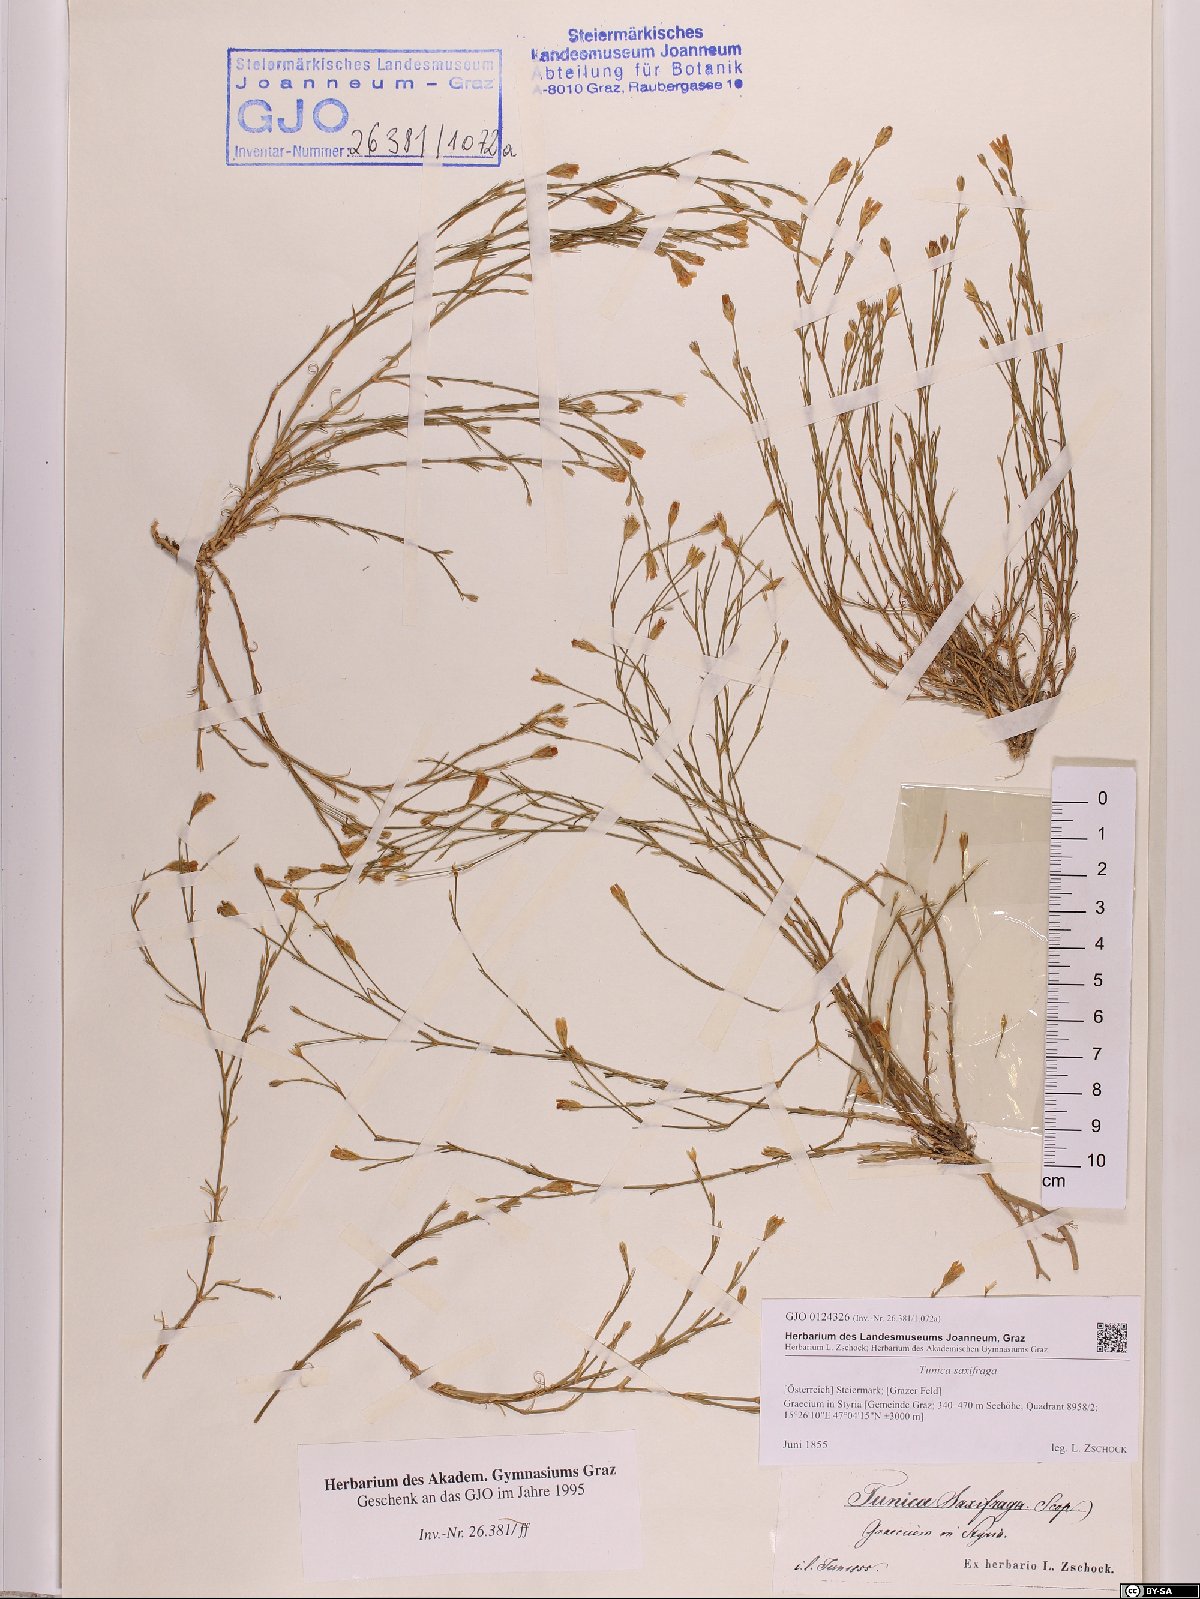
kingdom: Plantae
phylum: Tracheophyta
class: Magnoliopsida
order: Caryophyllales
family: Caryophyllaceae
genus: Petrorhagia
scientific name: Petrorhagia saxifraga
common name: Tunicflower
